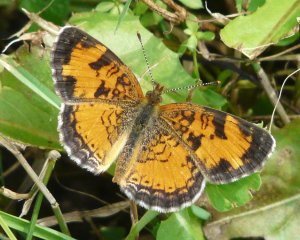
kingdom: Animalia
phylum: Arthropoda
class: Insecta
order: Lepidoptera
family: Nymphalidae
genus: Phyciodes
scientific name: Phyciodes tharos
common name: Northern Crescent
